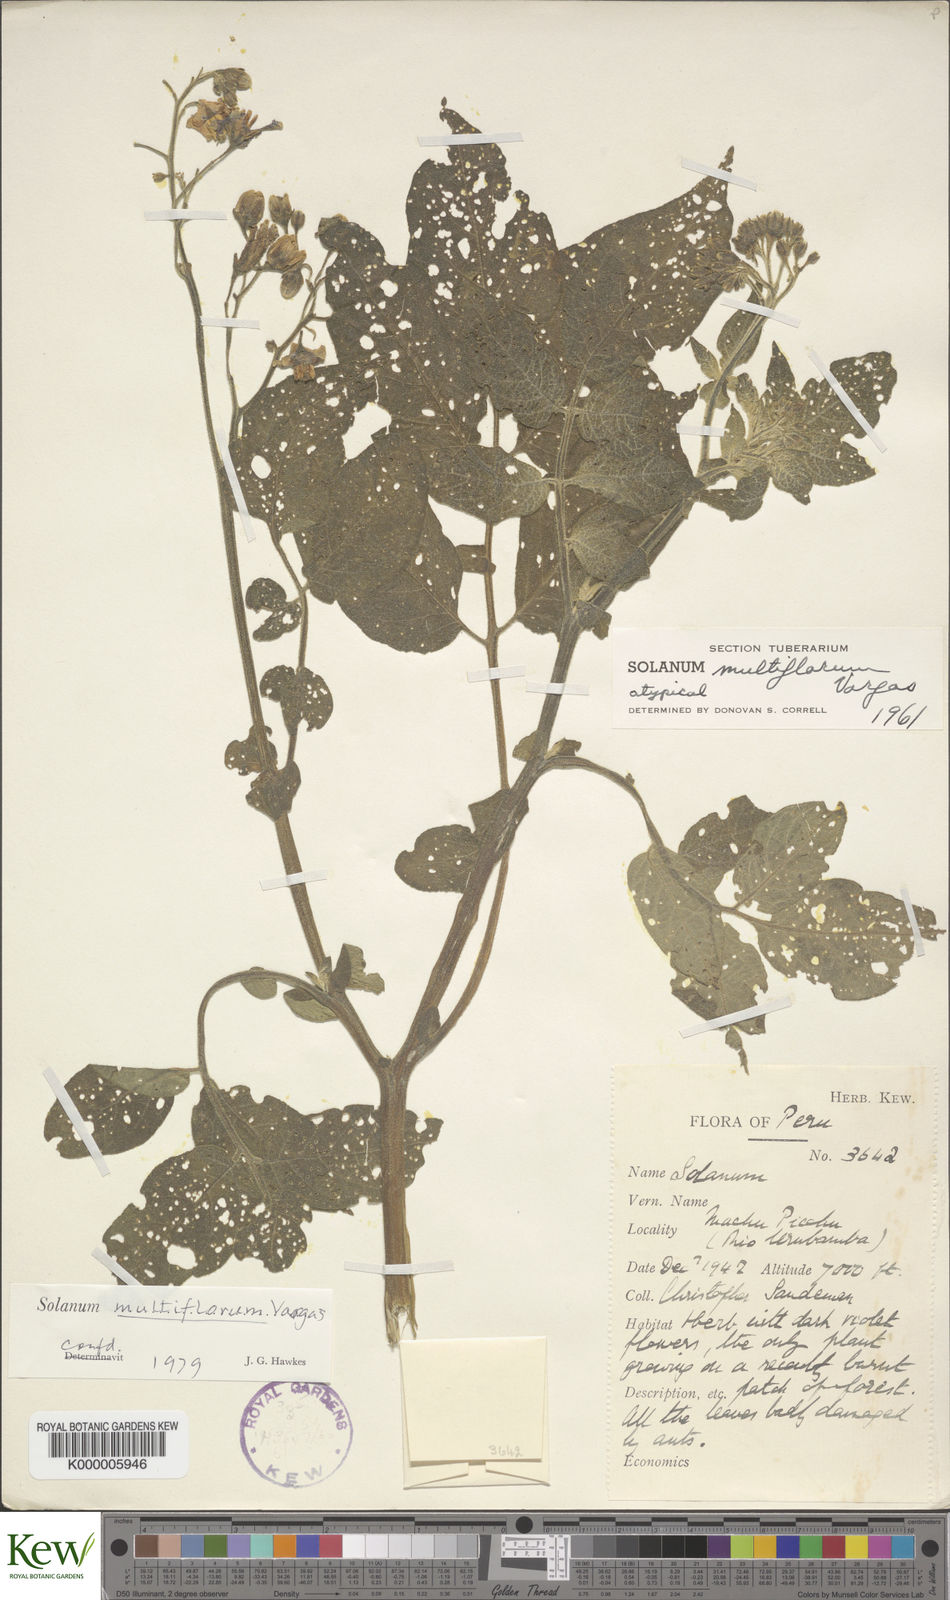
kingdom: Plantae
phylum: Tracheophyta
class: Magnoliopsida
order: Solanales
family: Solanaceae
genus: Solanum
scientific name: Solanum violaceimarmoratum
